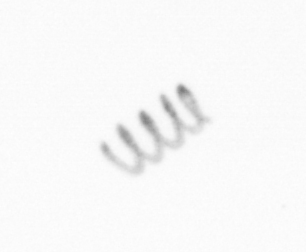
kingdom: Chromista
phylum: Ochrophyta
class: Bacillariophyceae
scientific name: Bacillariophyceae
